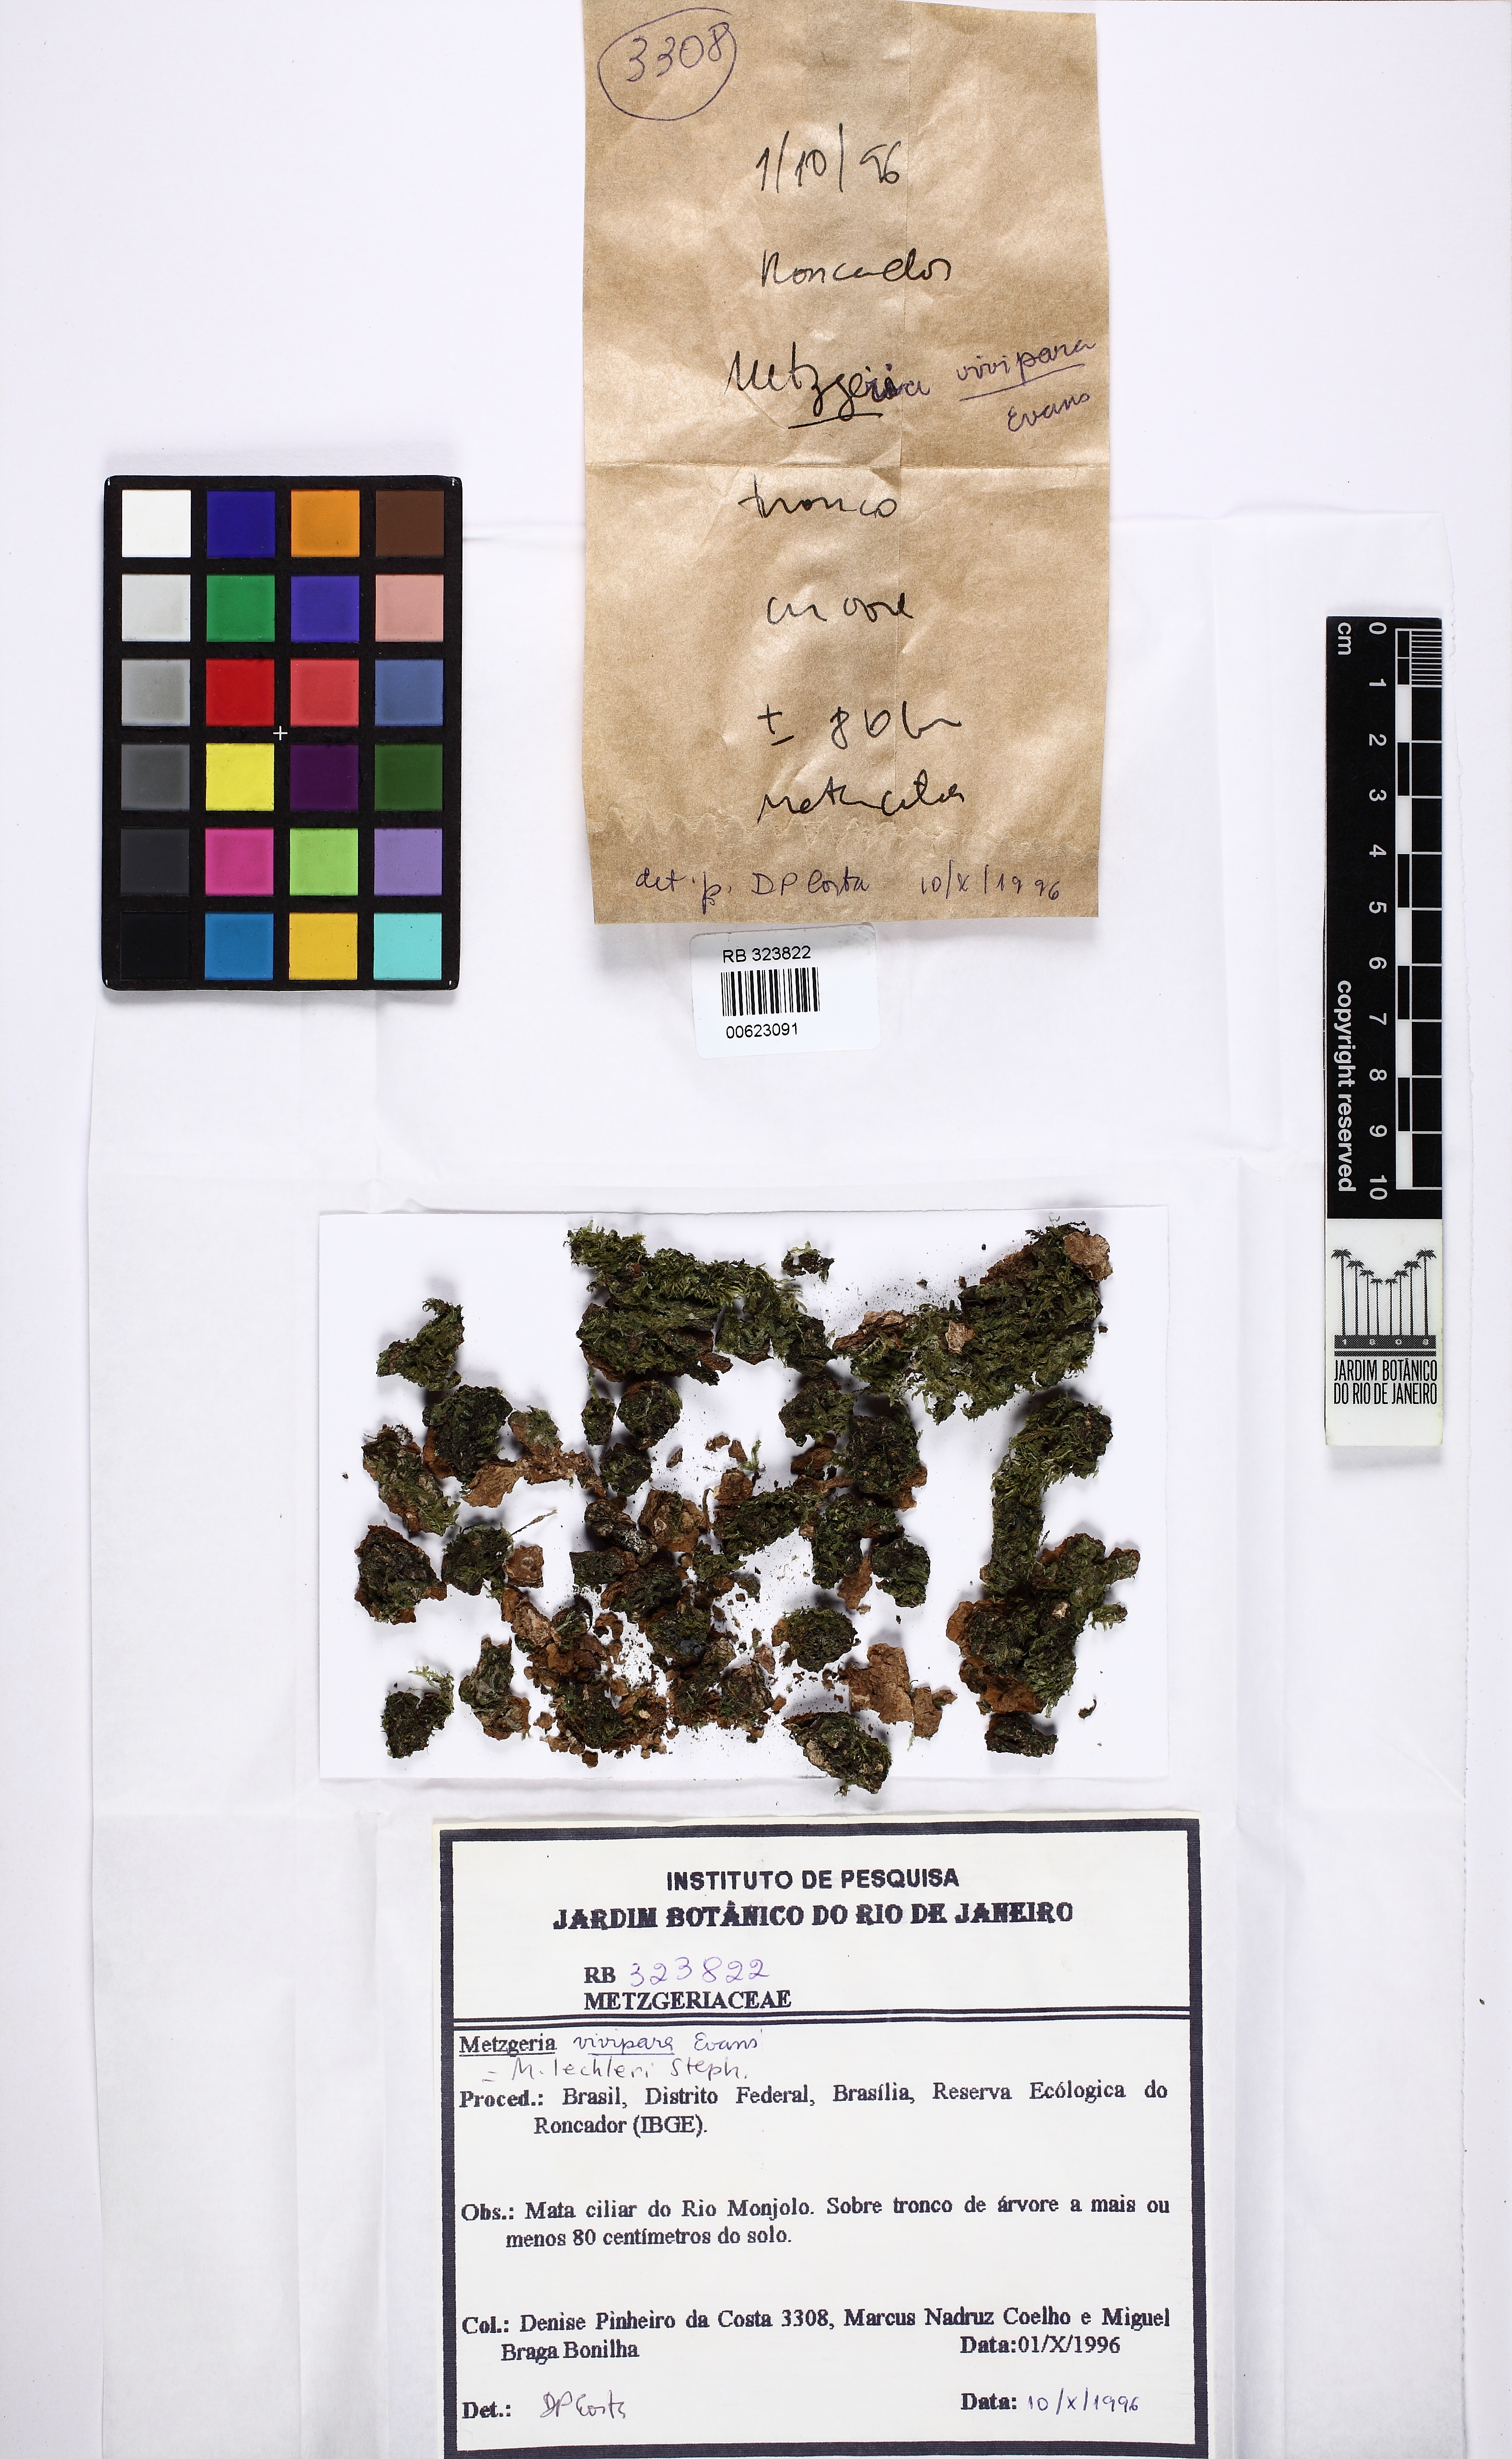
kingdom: Plantae
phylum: Marchantiophyta
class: Jungermanniopsida
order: Metzgeriales
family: Metzgeriaceae
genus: Metzgeria
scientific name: Metzgeria lechleri
